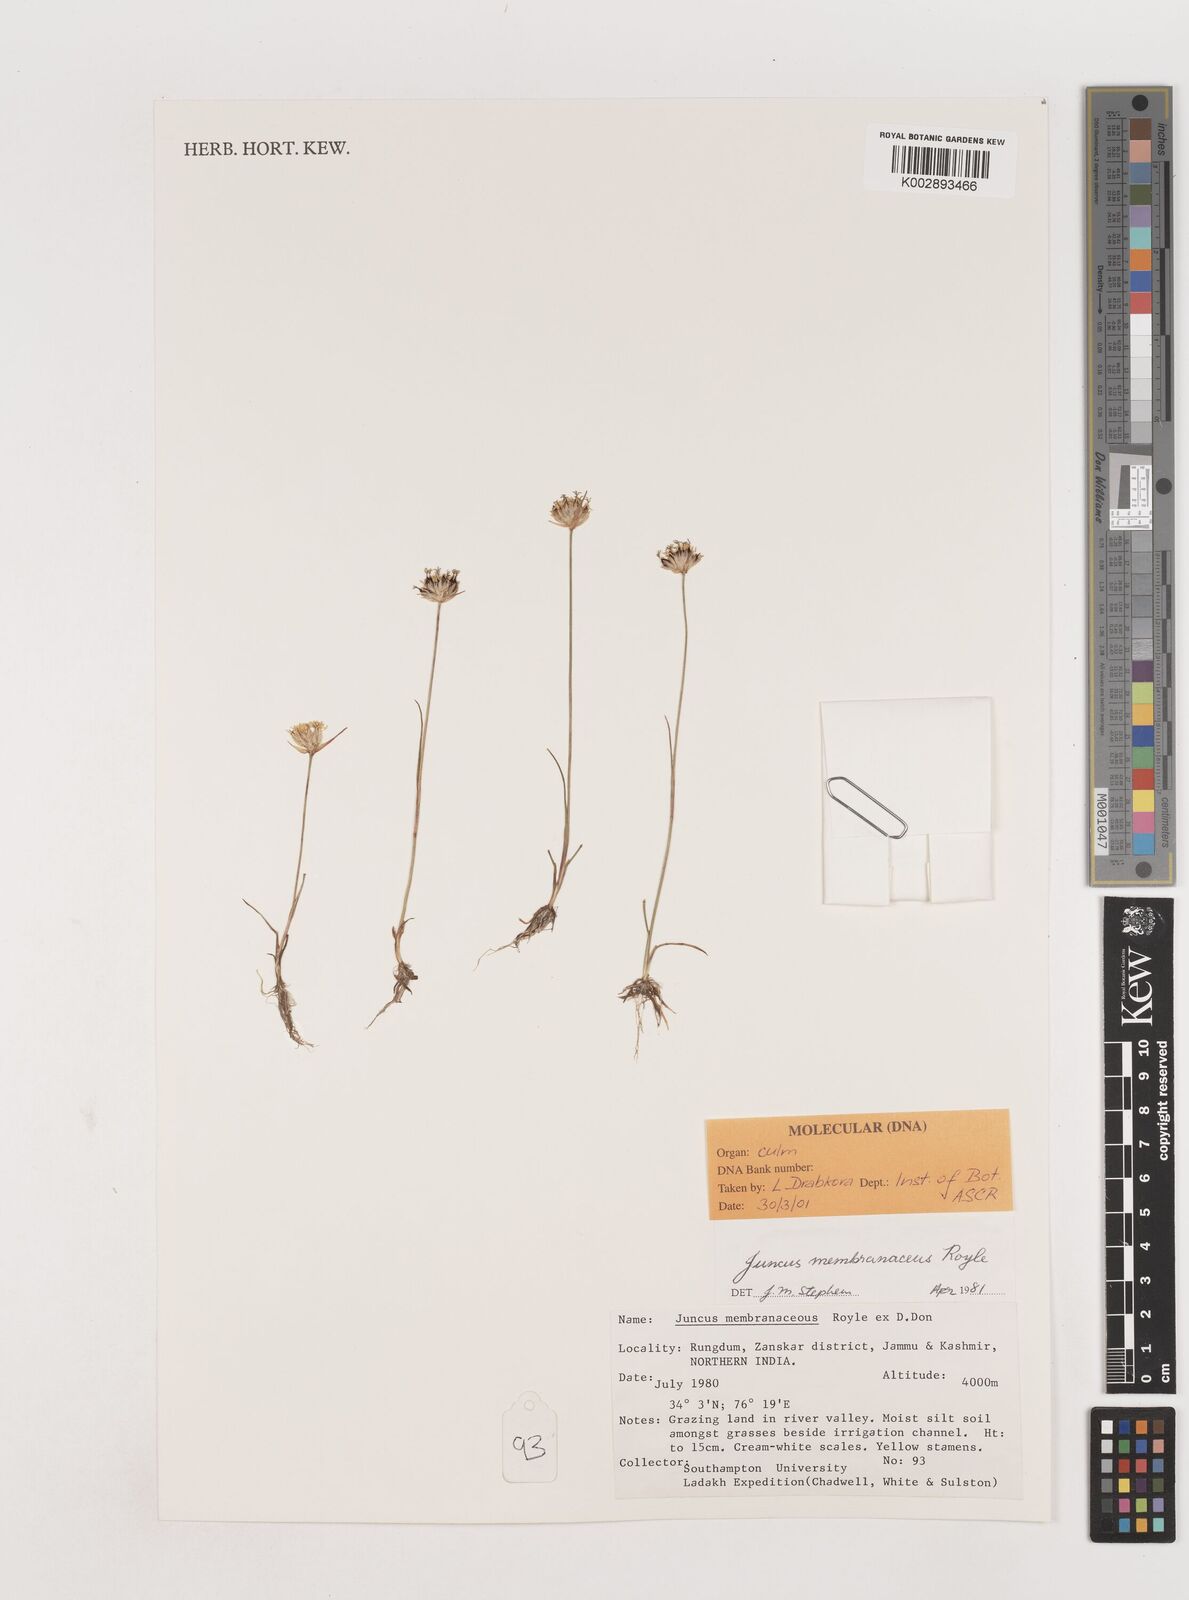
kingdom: Plantae
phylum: Tracheophyta
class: Liliopsida
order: Poales
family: Juncaceae
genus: Juncus
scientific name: Juncus membranaceus
